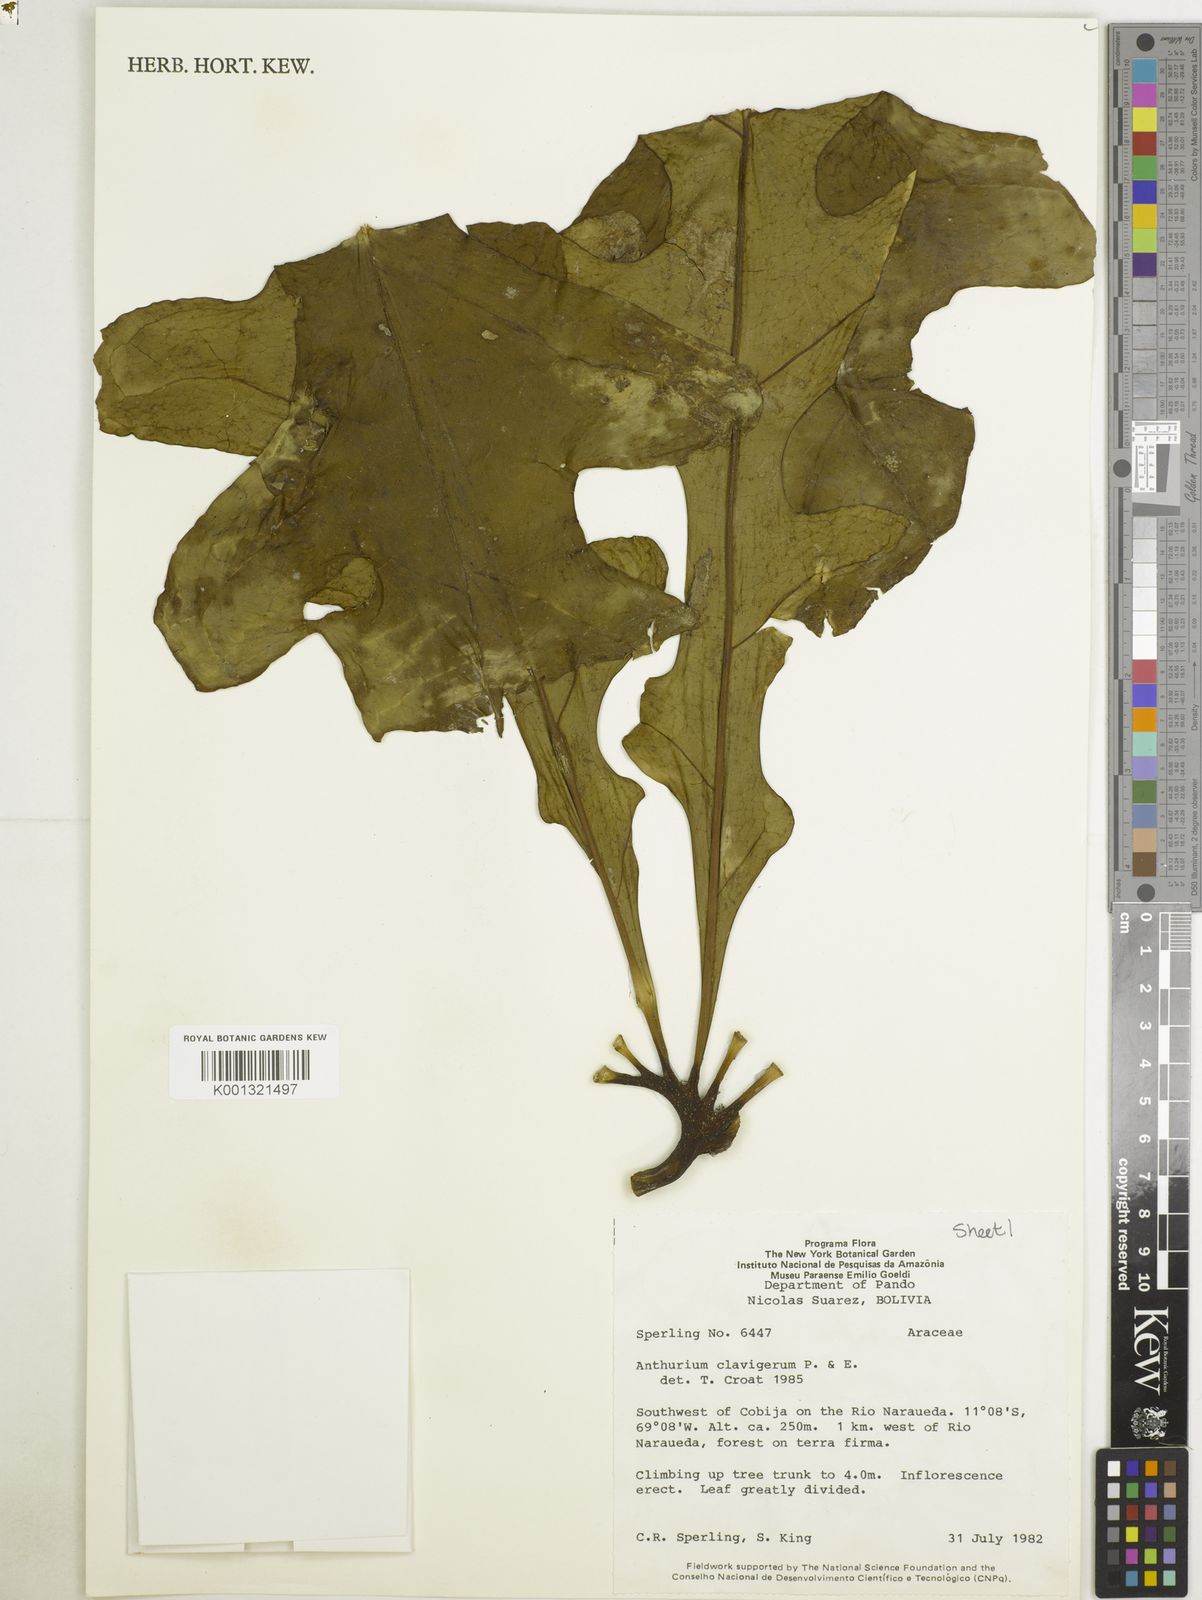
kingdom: Plantae
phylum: Tracheophyta
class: Liliopsida
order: Alismatales
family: Araceae
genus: Anthurium
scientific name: Anthurium clavigerum
